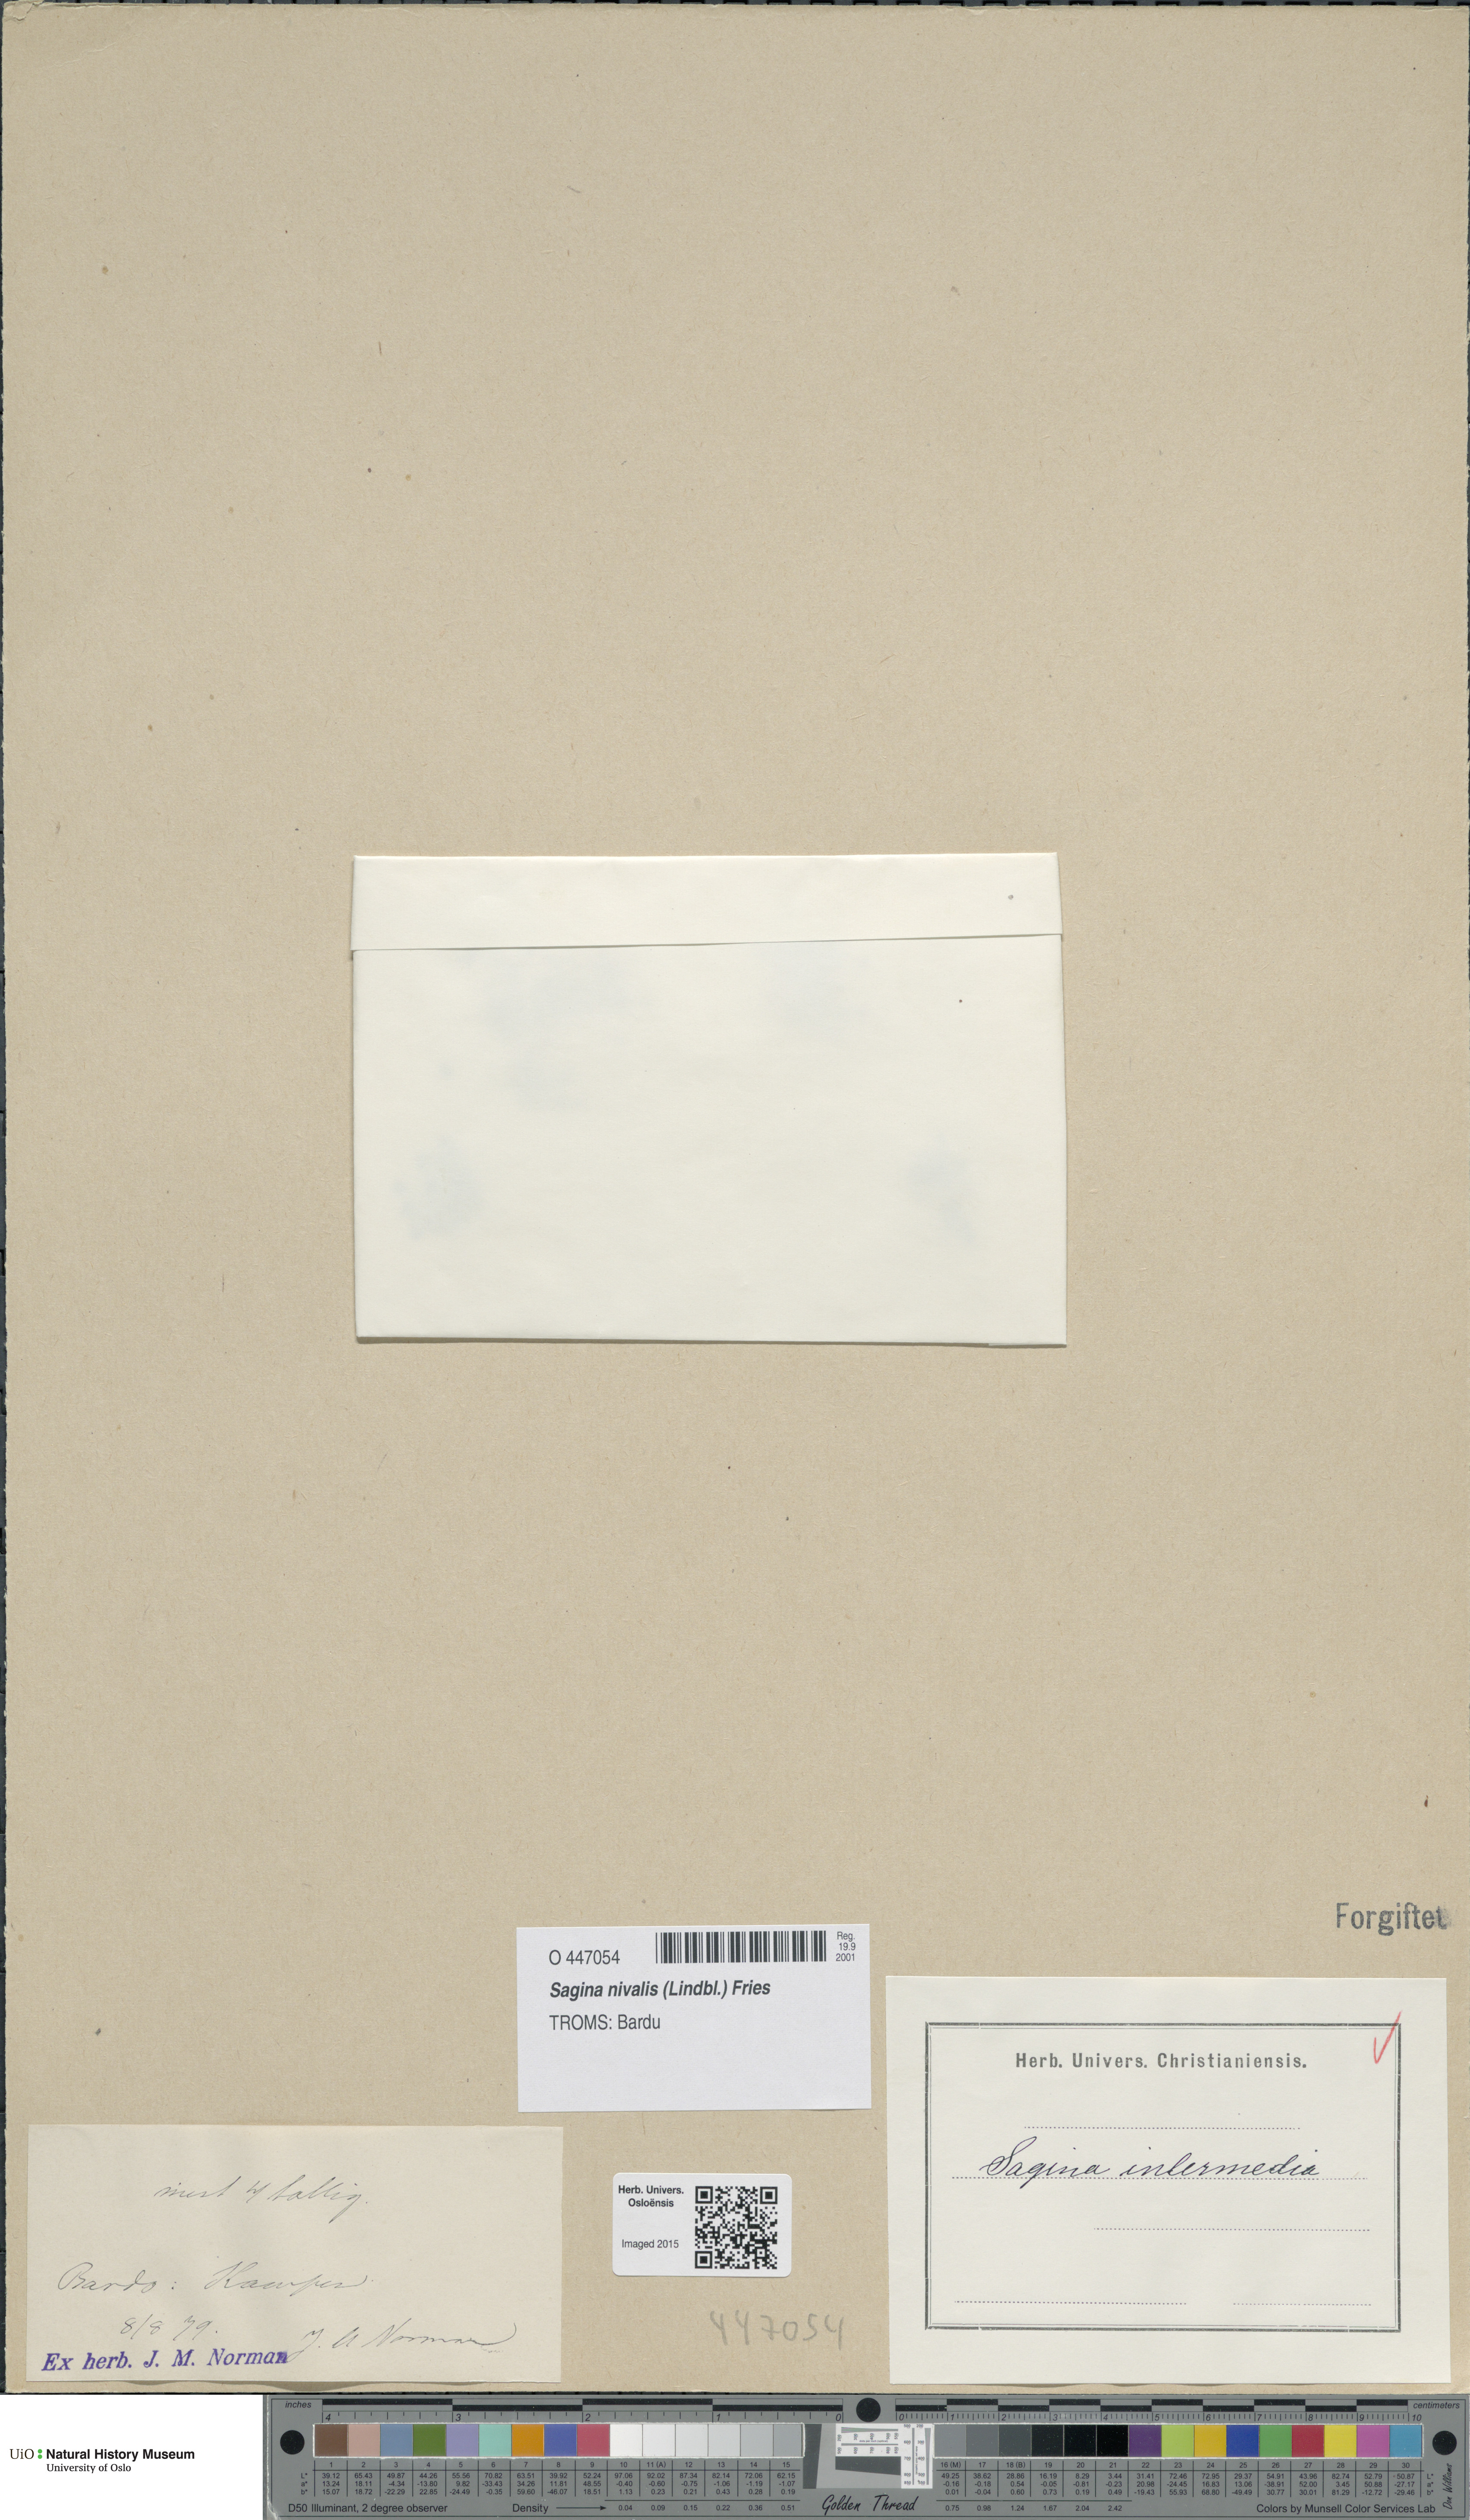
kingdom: Plantae
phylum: Tracheophyta
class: Magnoliopsida
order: Caryophyllales
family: Caryophyllaceae
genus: Sagina
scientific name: Sagina nivalis
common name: Snow pearlwort
